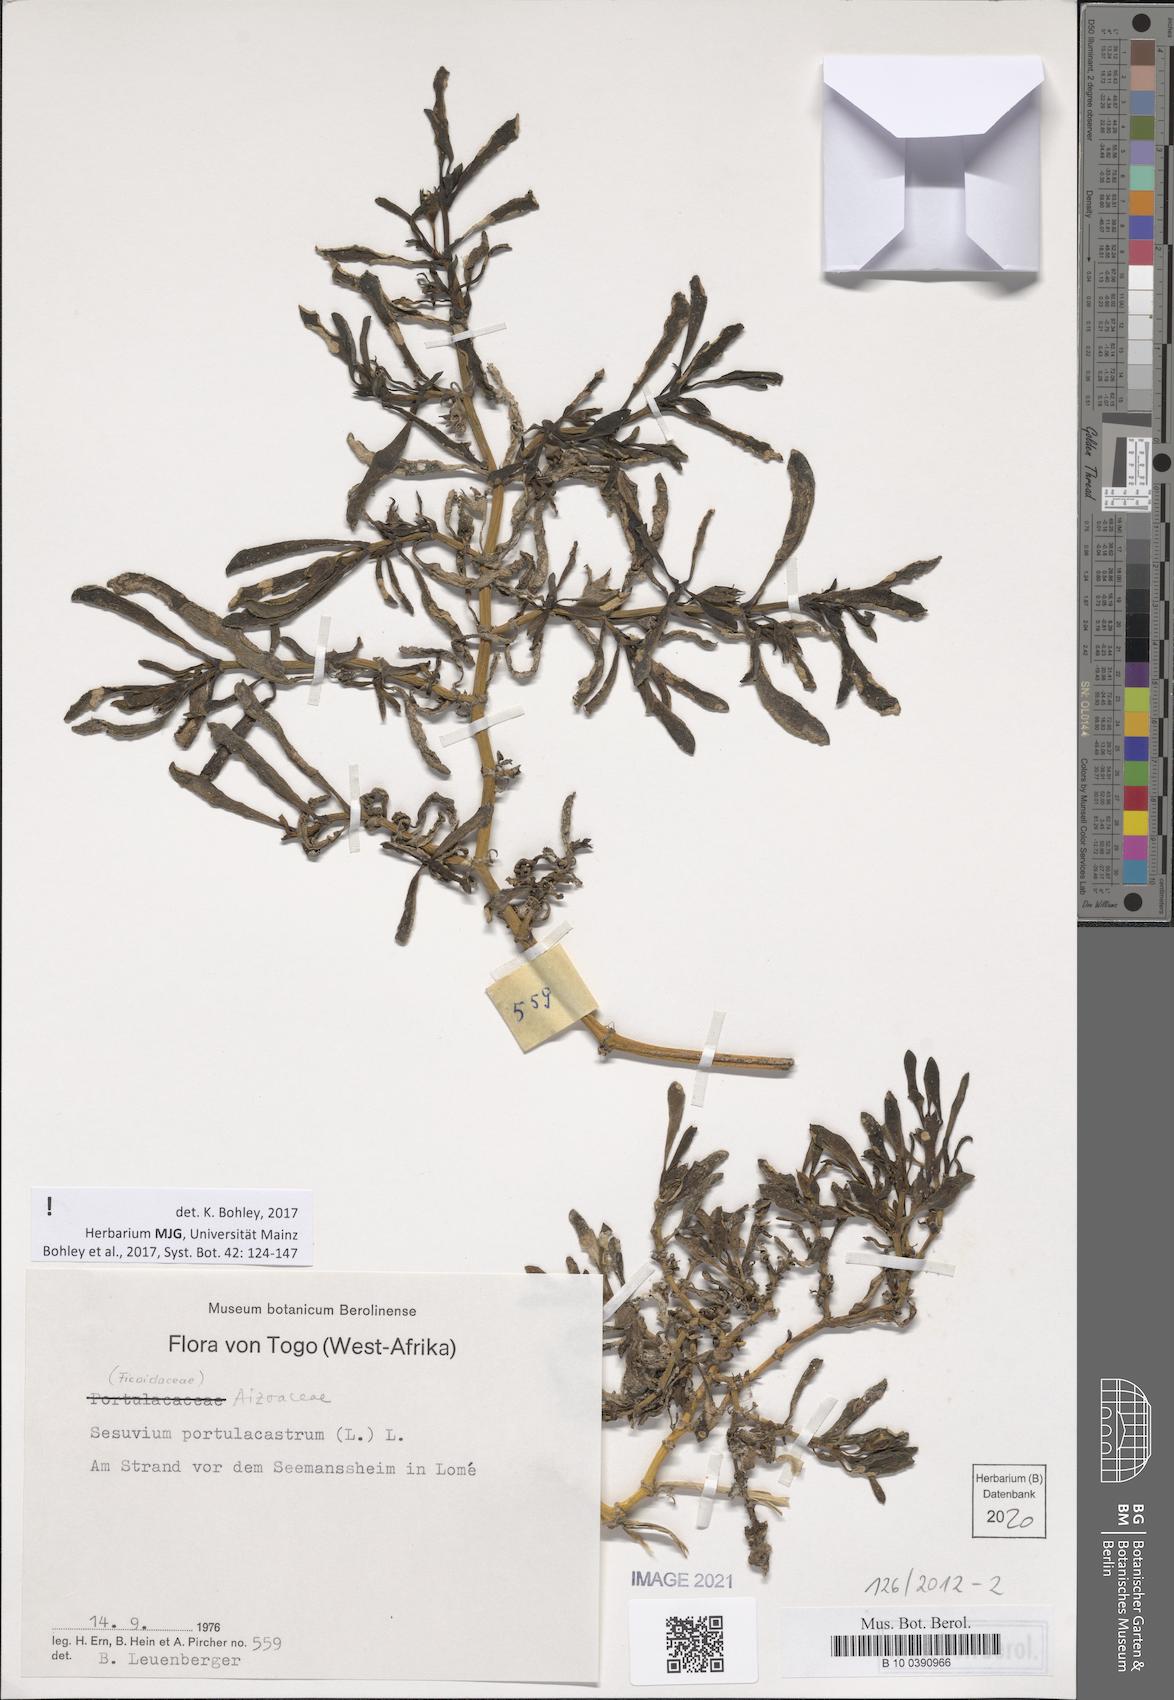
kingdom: Plantae
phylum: Tracheophyta
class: Magnoliopsida
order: Caryophyllales
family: Aizoaceae
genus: Sesuvium
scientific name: Sesuvium portulacastrum
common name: Sea-purslane
